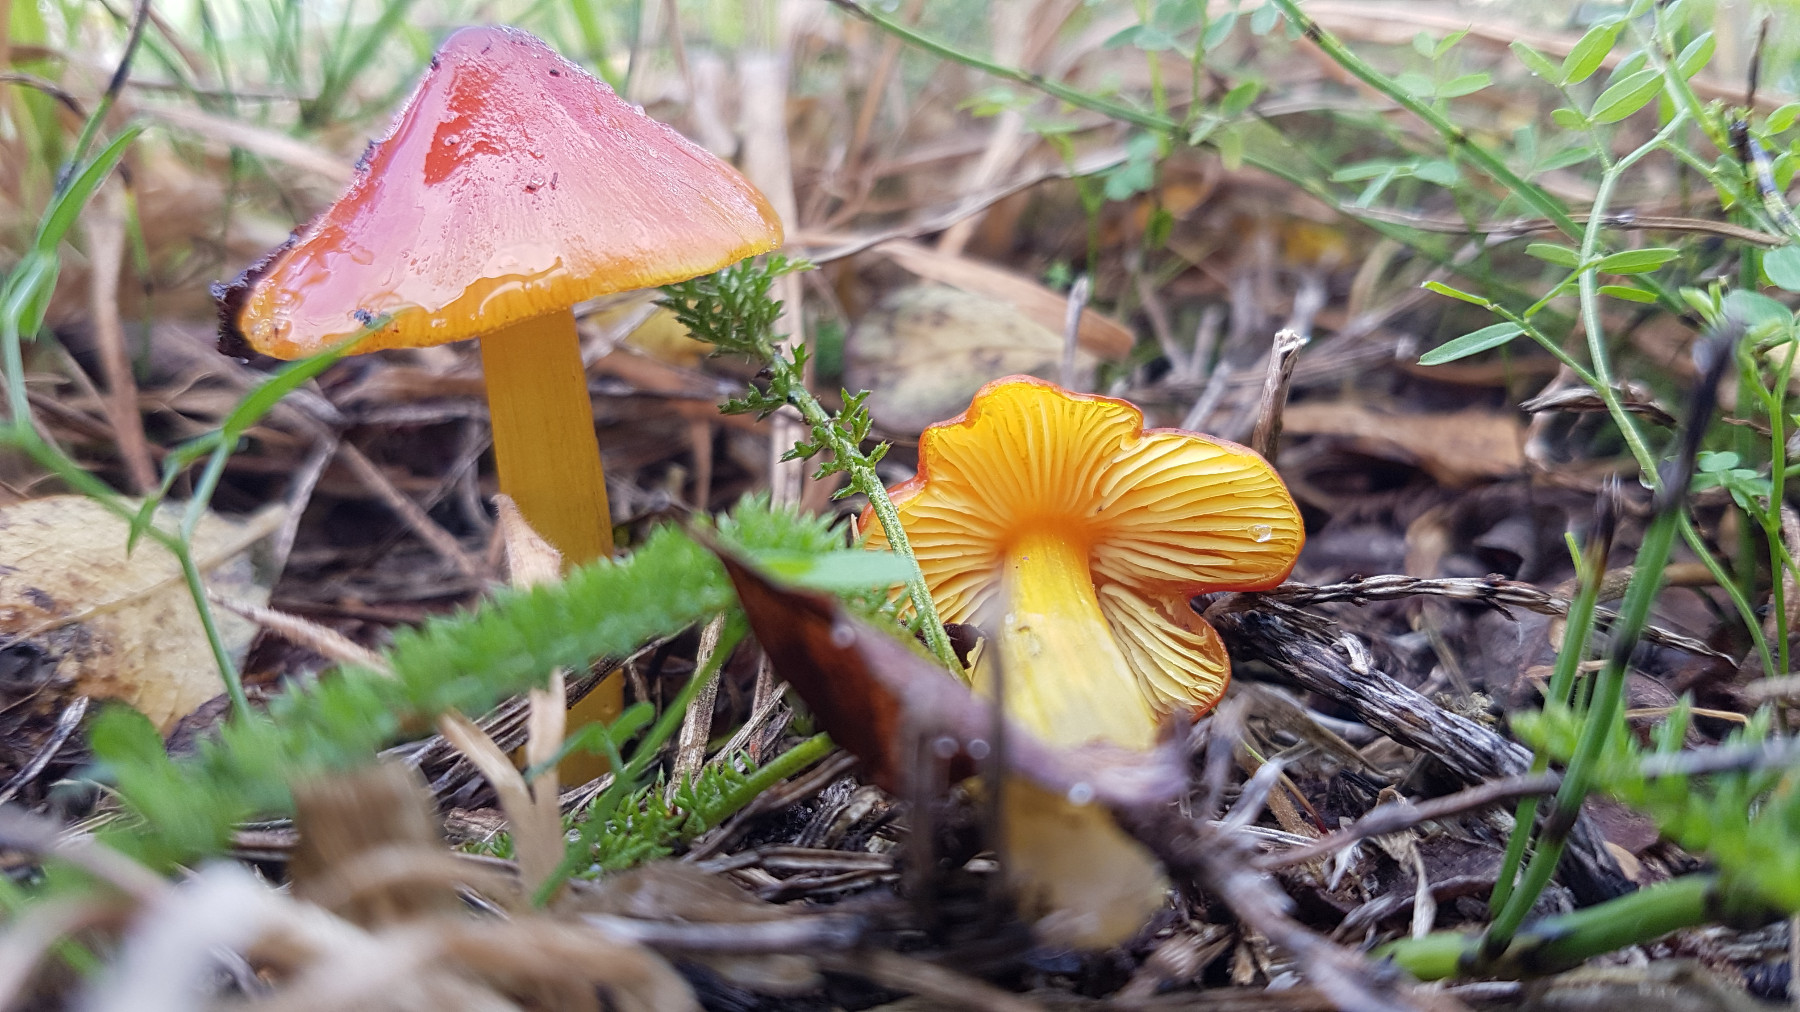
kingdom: Fungi
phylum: Basidiomycota
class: Agaricomycetes
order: Agaricales
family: Hygrophoraceae
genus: Hygrocybe
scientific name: Hygrocybe conica
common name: kegle-vokshat
